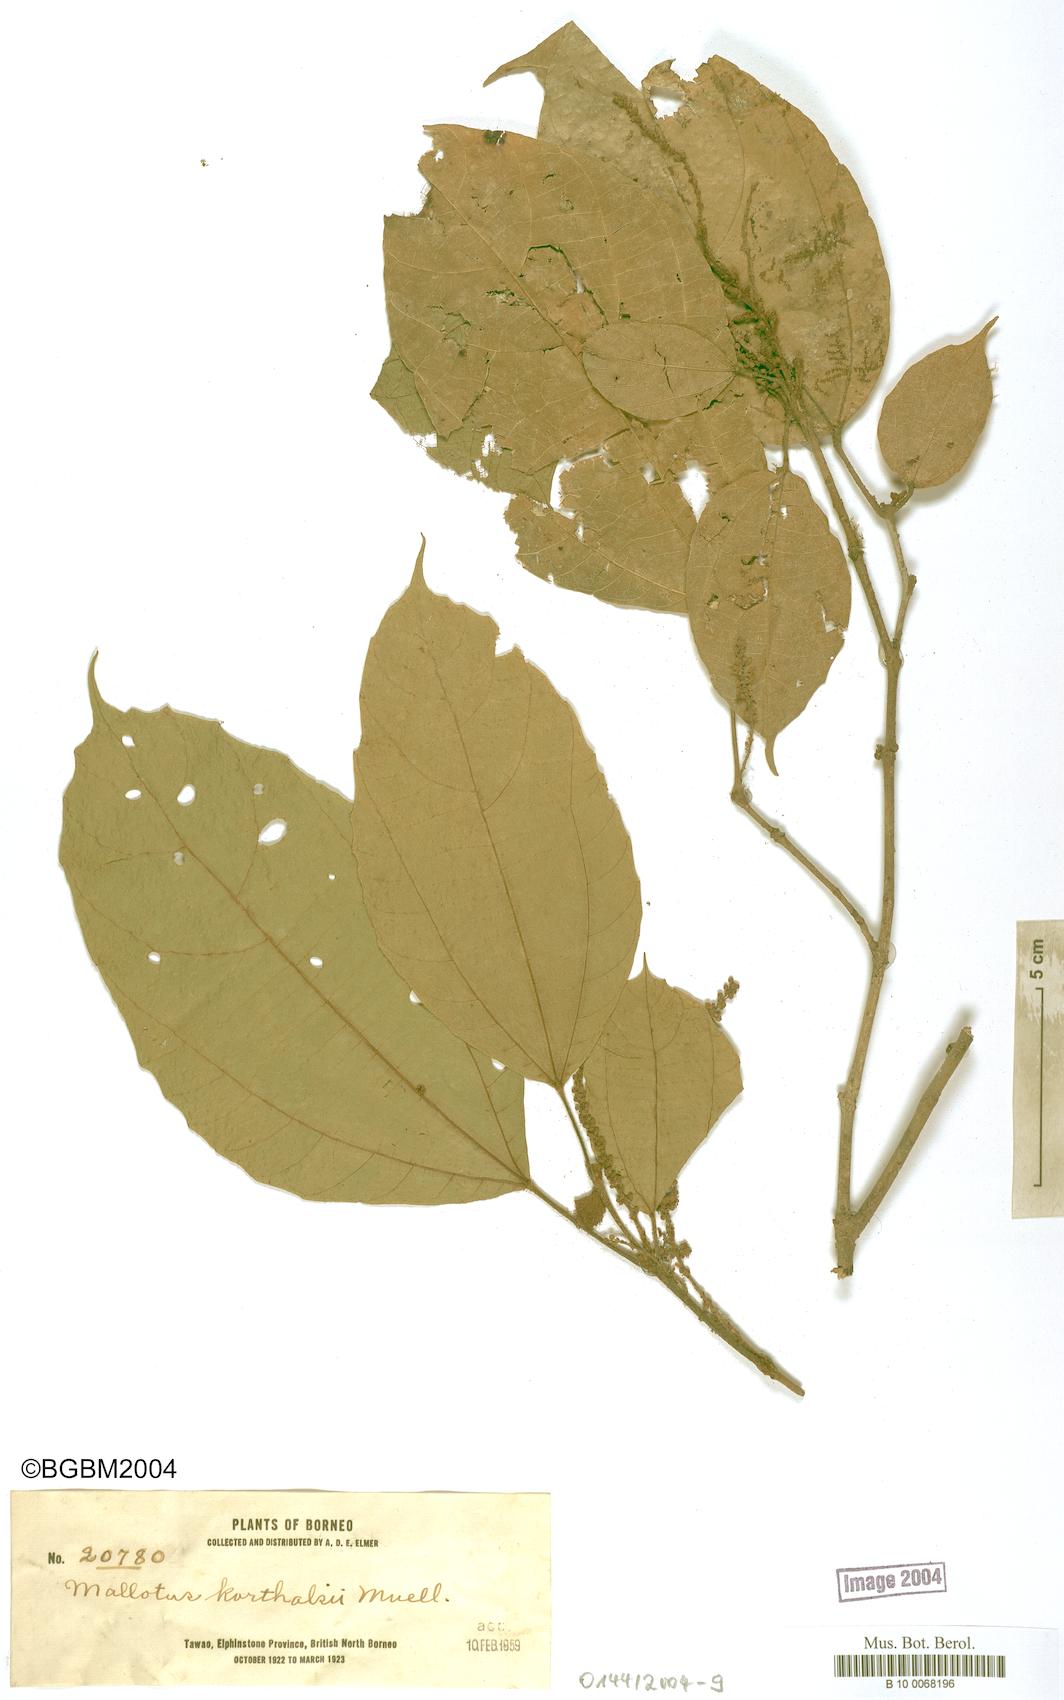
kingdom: Plantae
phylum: Tracheophyta
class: Magnoliopsida
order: Malpighiales
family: Euphorbiaceae
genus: Mallotus
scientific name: Mallotus korthalsii
